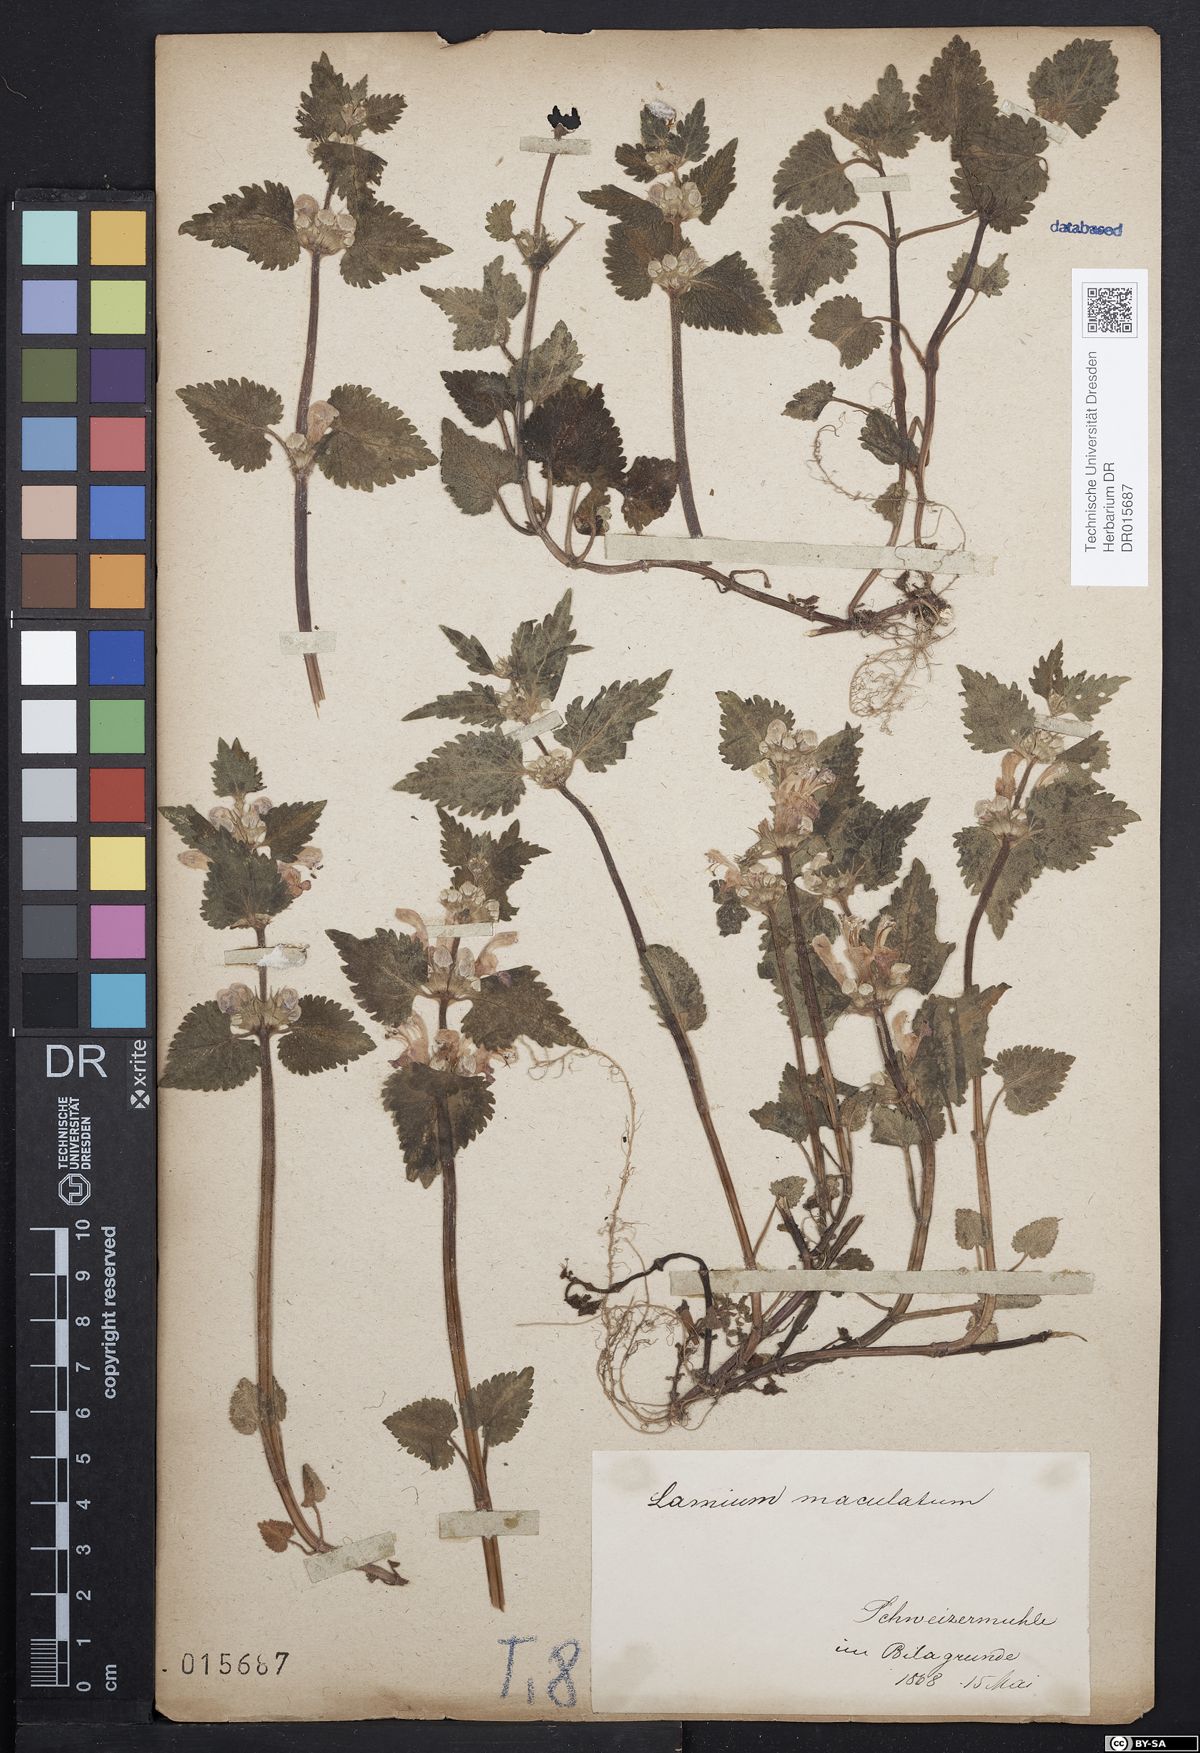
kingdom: Plantae
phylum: Tracheophyta
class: Magnoliopsida
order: Lamiales
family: Lamiaceae
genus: Lamium
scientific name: Lamium maculatum
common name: Spotted dead-nettle
